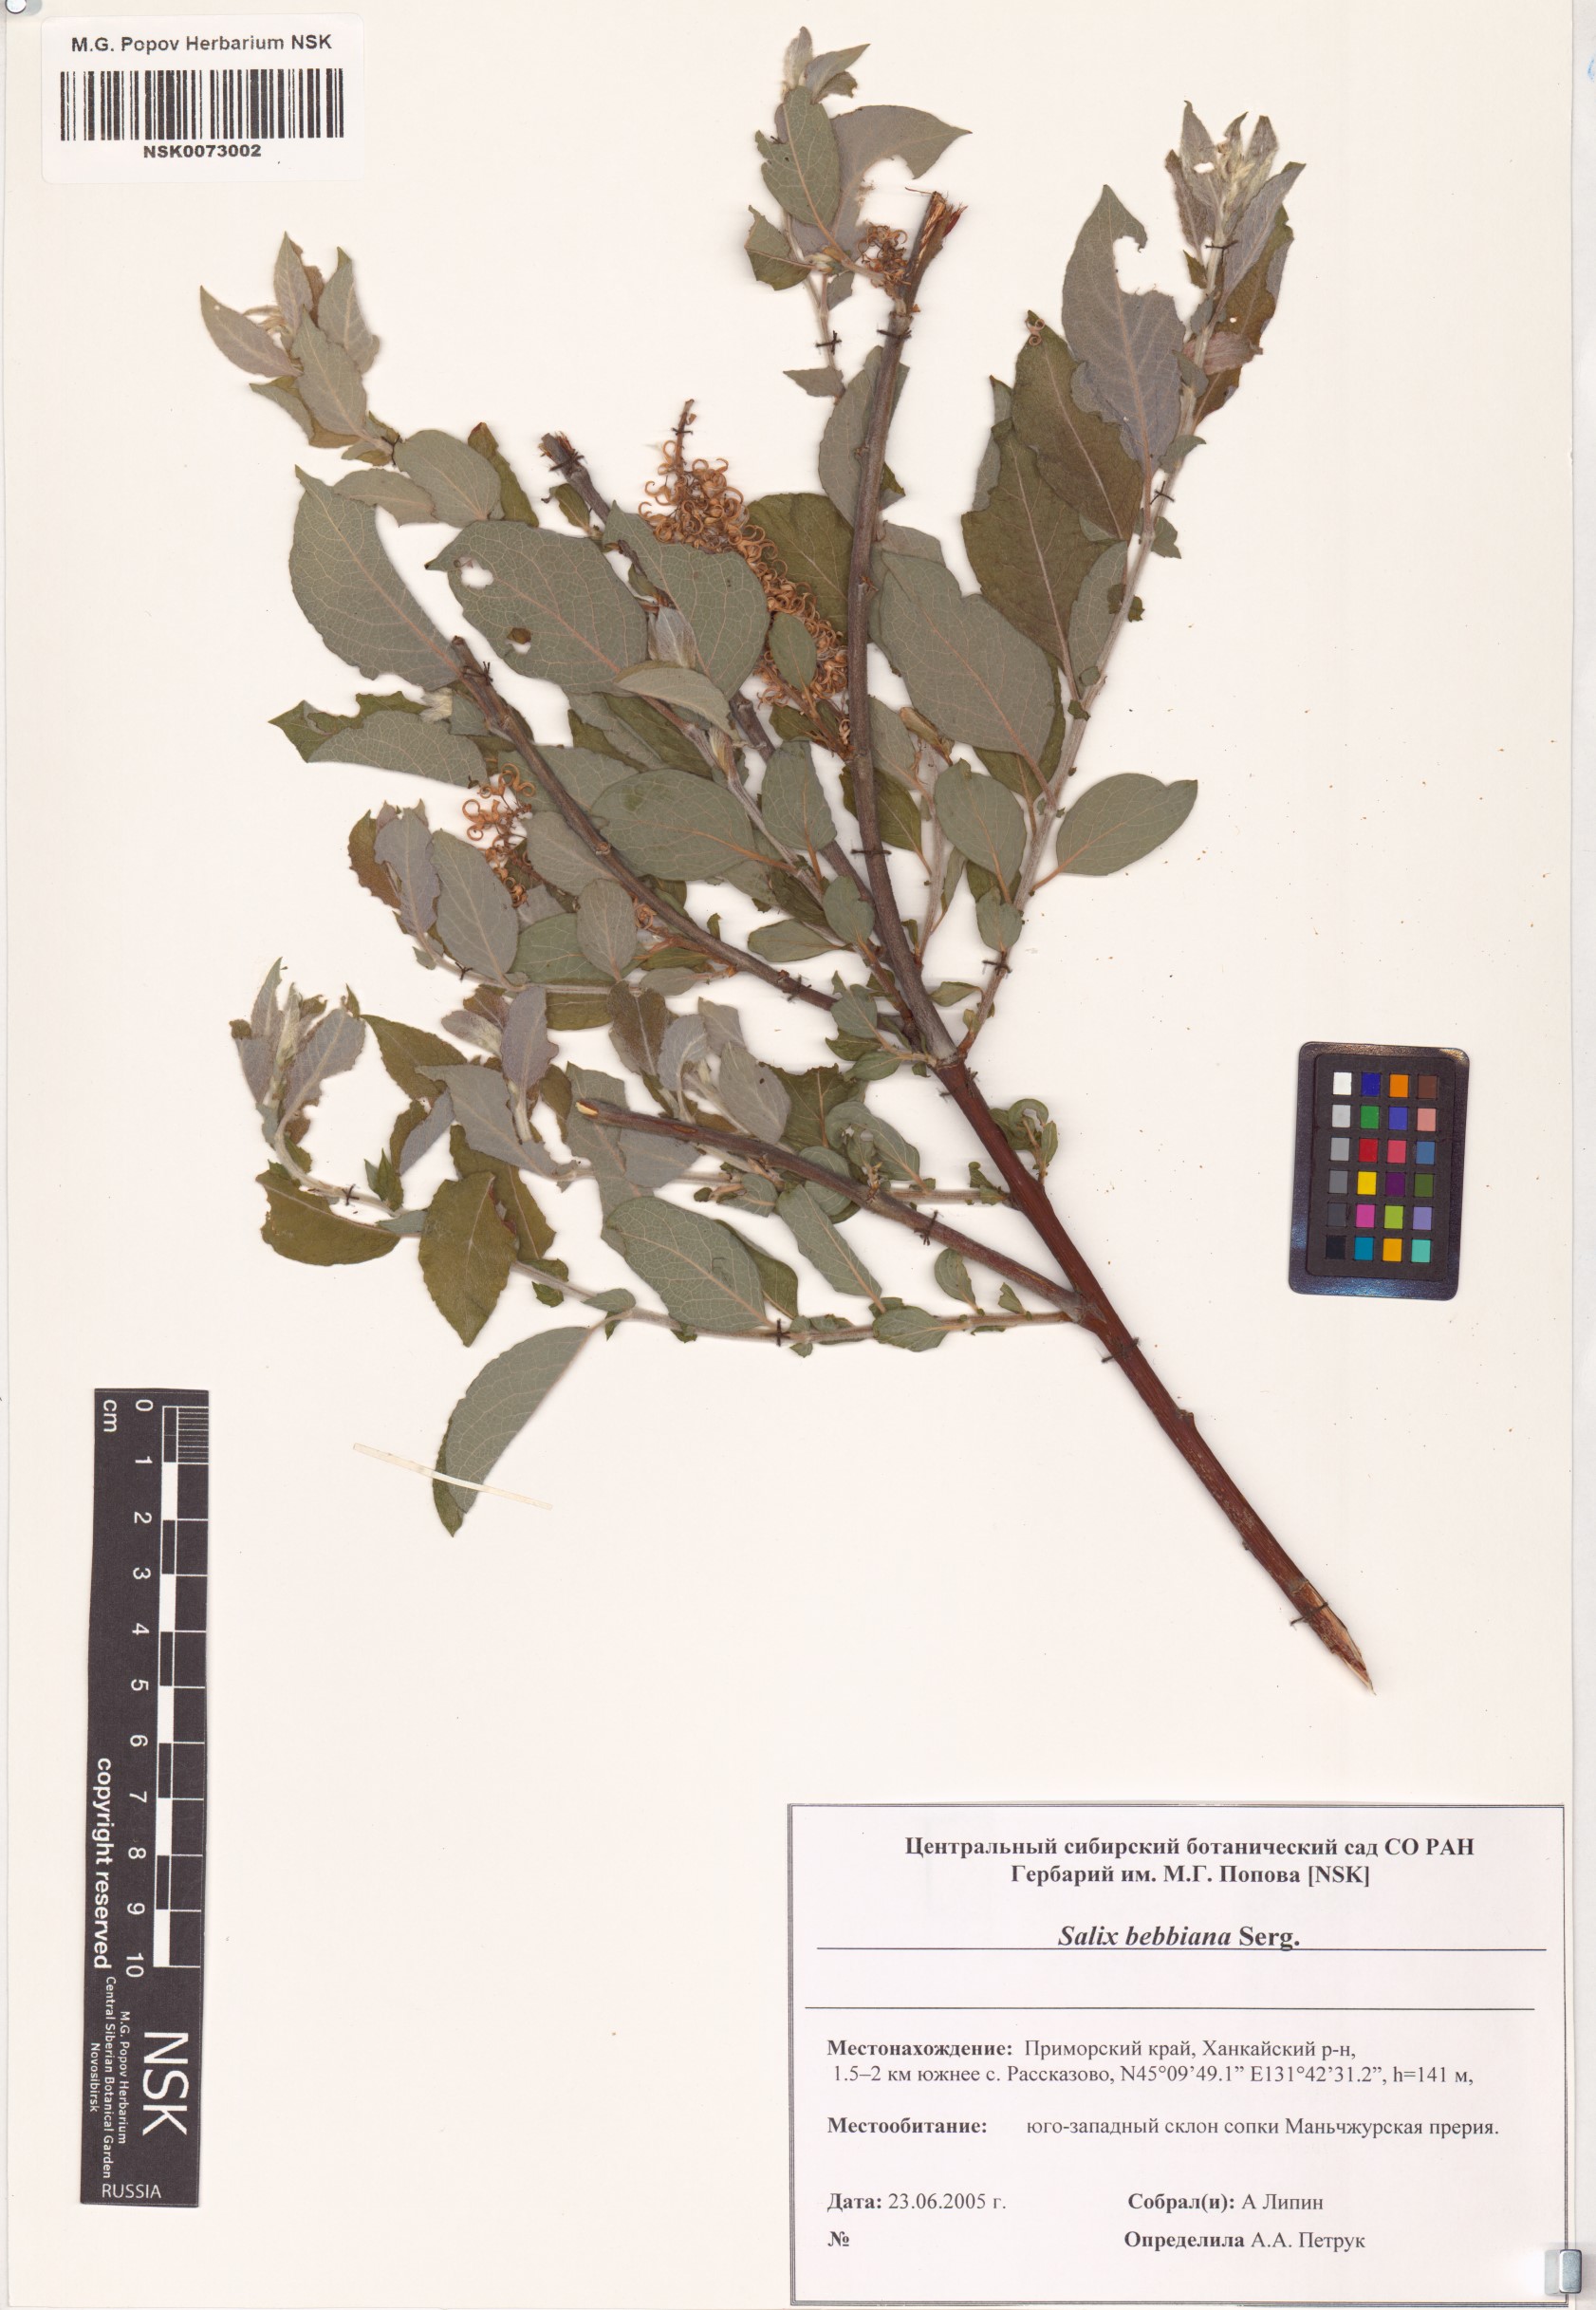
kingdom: Plantae
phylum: Tracheophyta
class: Magnoliopsida
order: Malpighiales
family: Salicaceae
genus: Salix
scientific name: Salix bebbiana
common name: Bebb's willow
